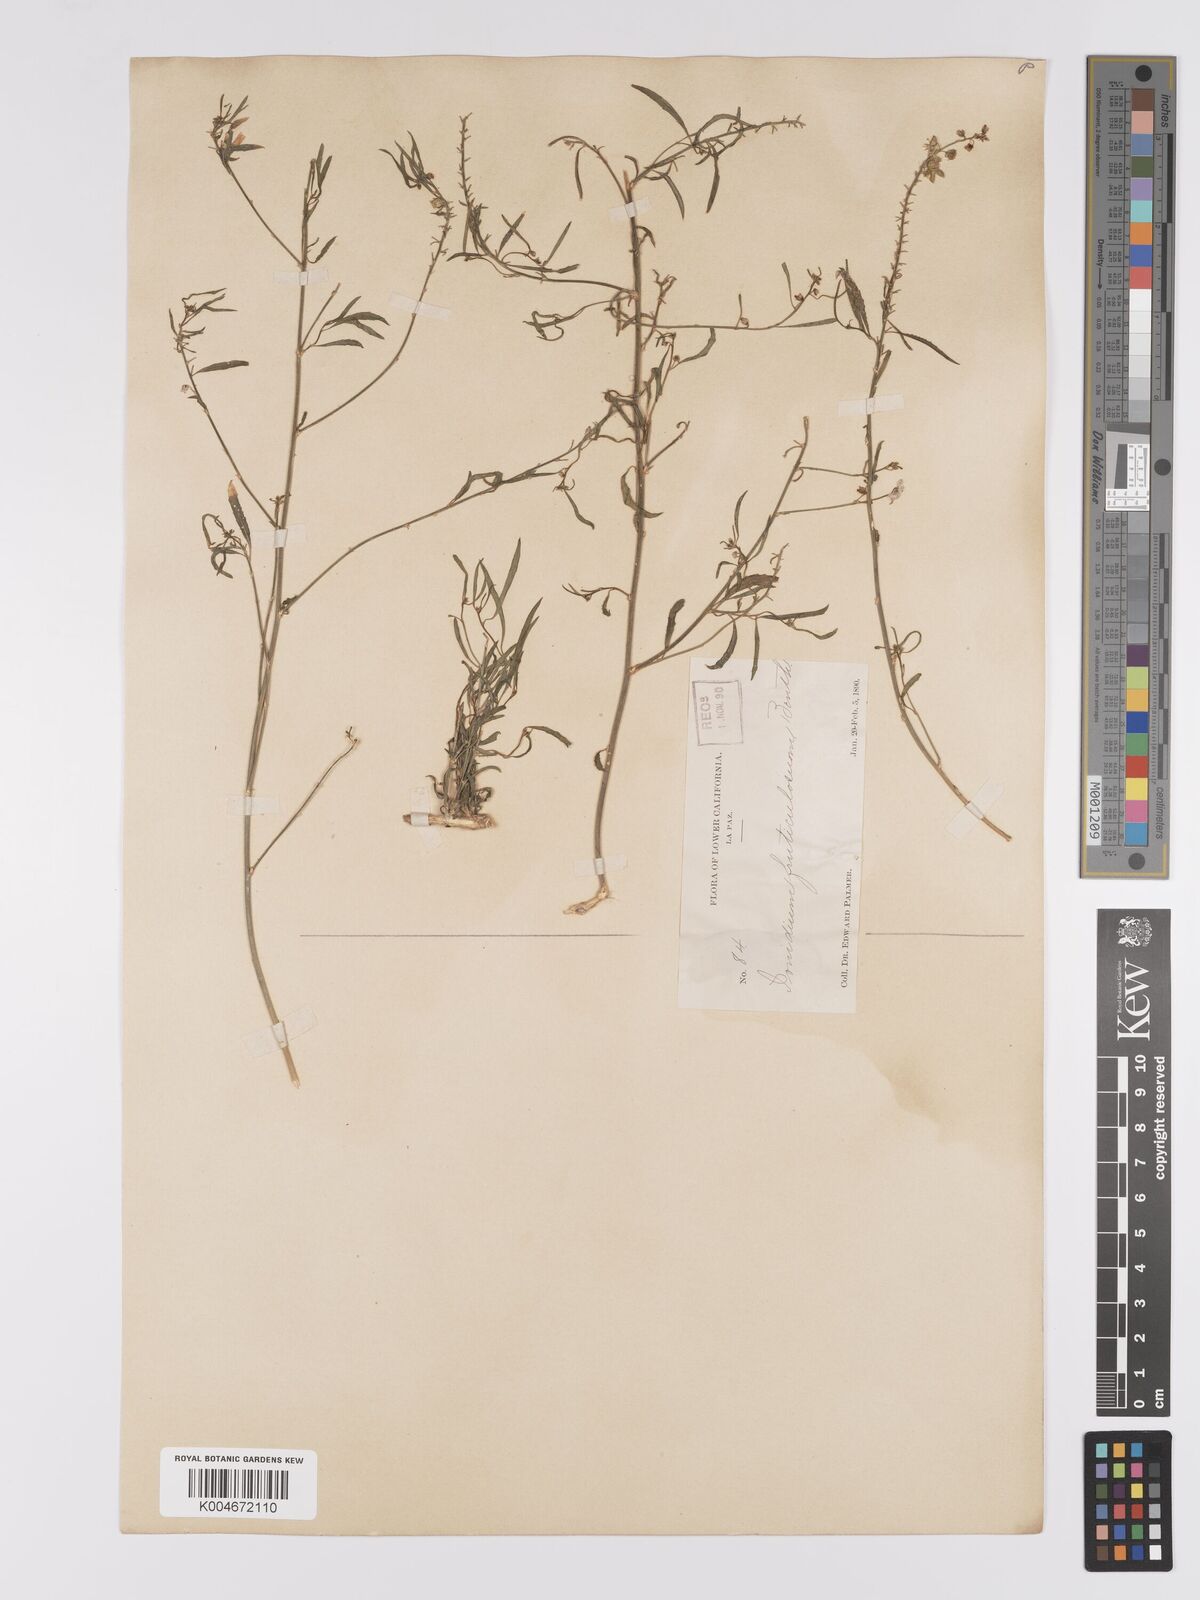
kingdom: Plantae
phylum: Tracheophyta
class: Magnoliopsida
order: Malpighiales
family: Violaceae
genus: Hybanthus
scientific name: Hybanthus fruticulosus
